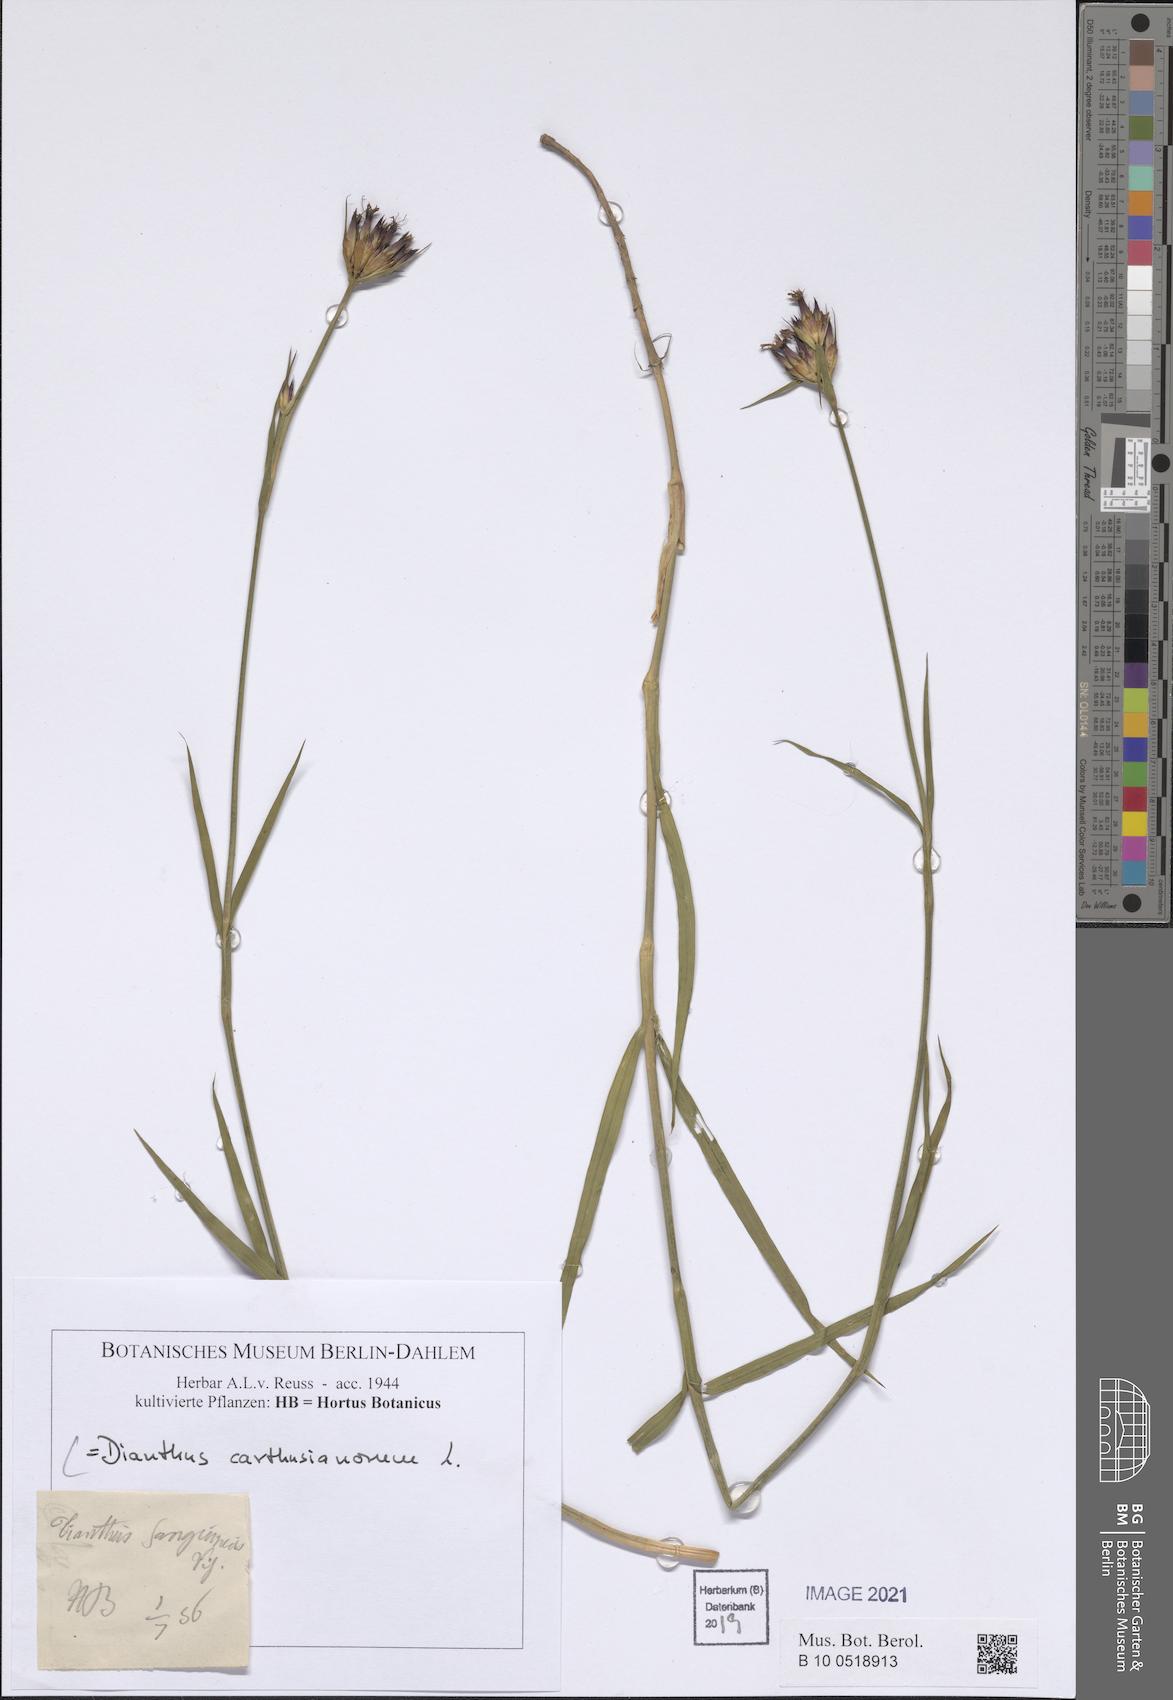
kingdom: Plantae
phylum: Tracheophyta
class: Magnoliopsida
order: Caryophyllales
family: Caryophyllaceae
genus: Dianthus
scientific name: Dianthus carthusianorum
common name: Carthusian pink
